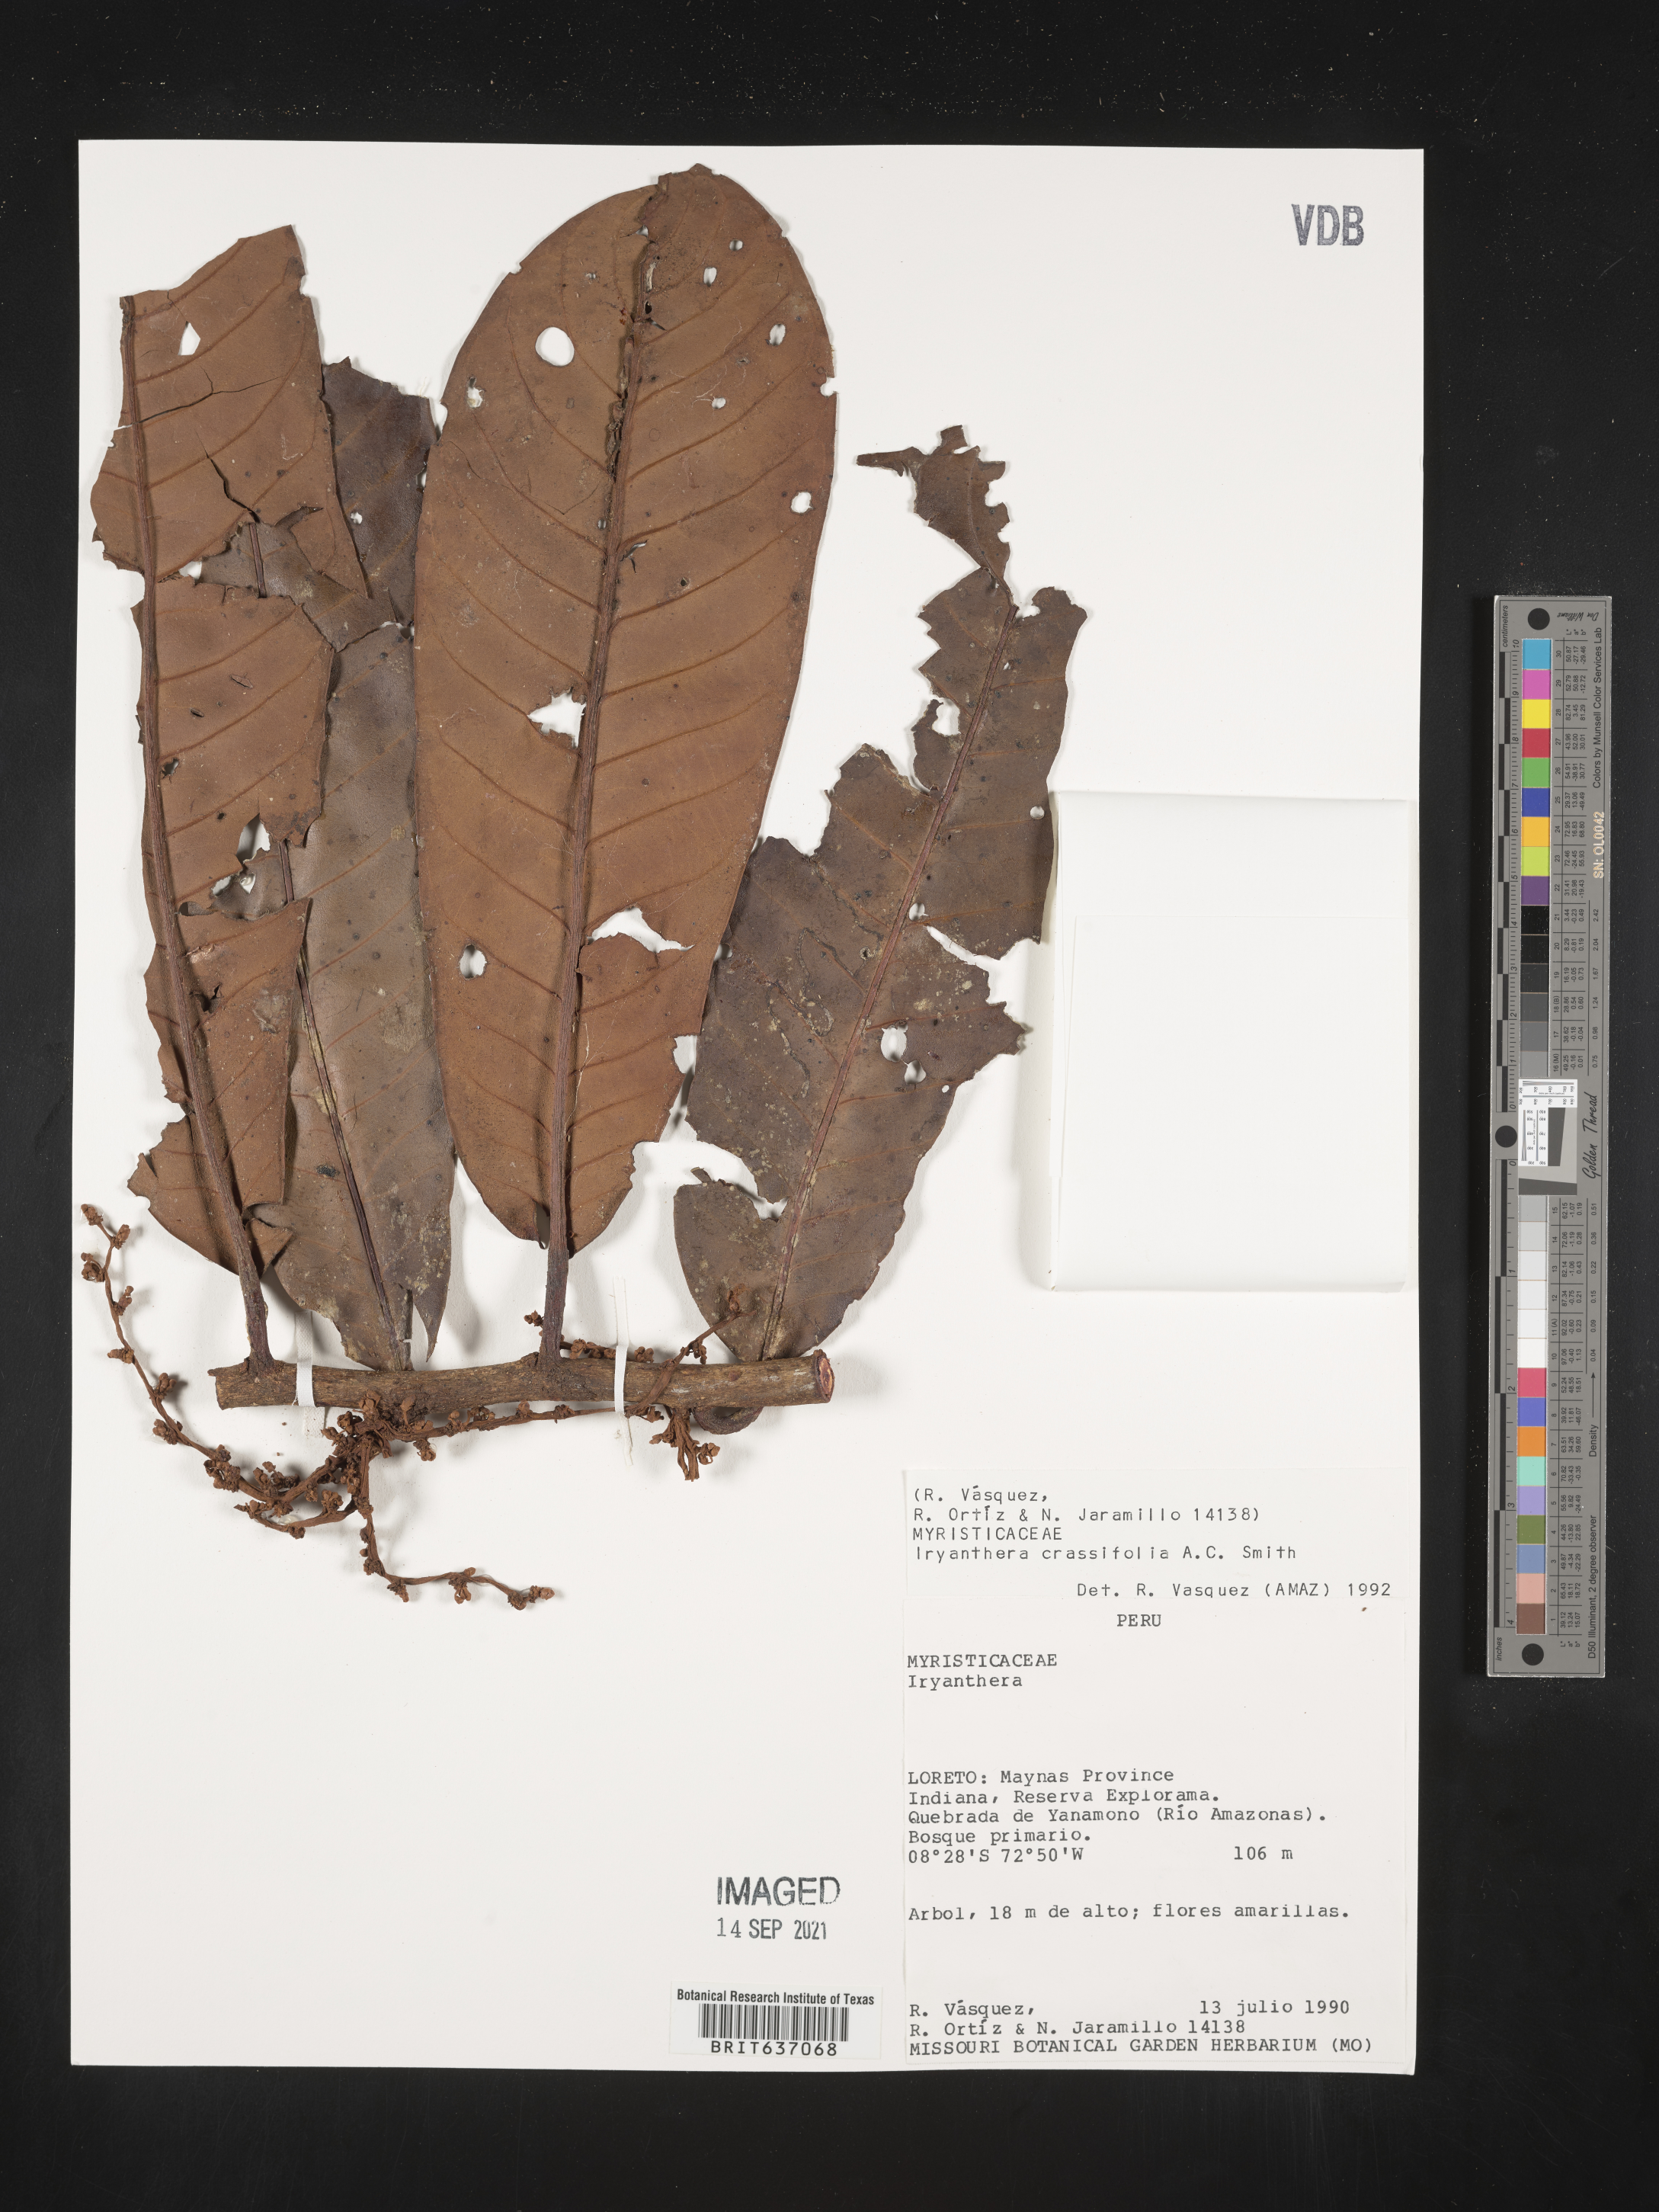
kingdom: Plantae
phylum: Tracheophyta
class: Magnoliopsida
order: Magnoliales
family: Myristicaceae
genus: Iryanthera
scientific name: Iryanthera
